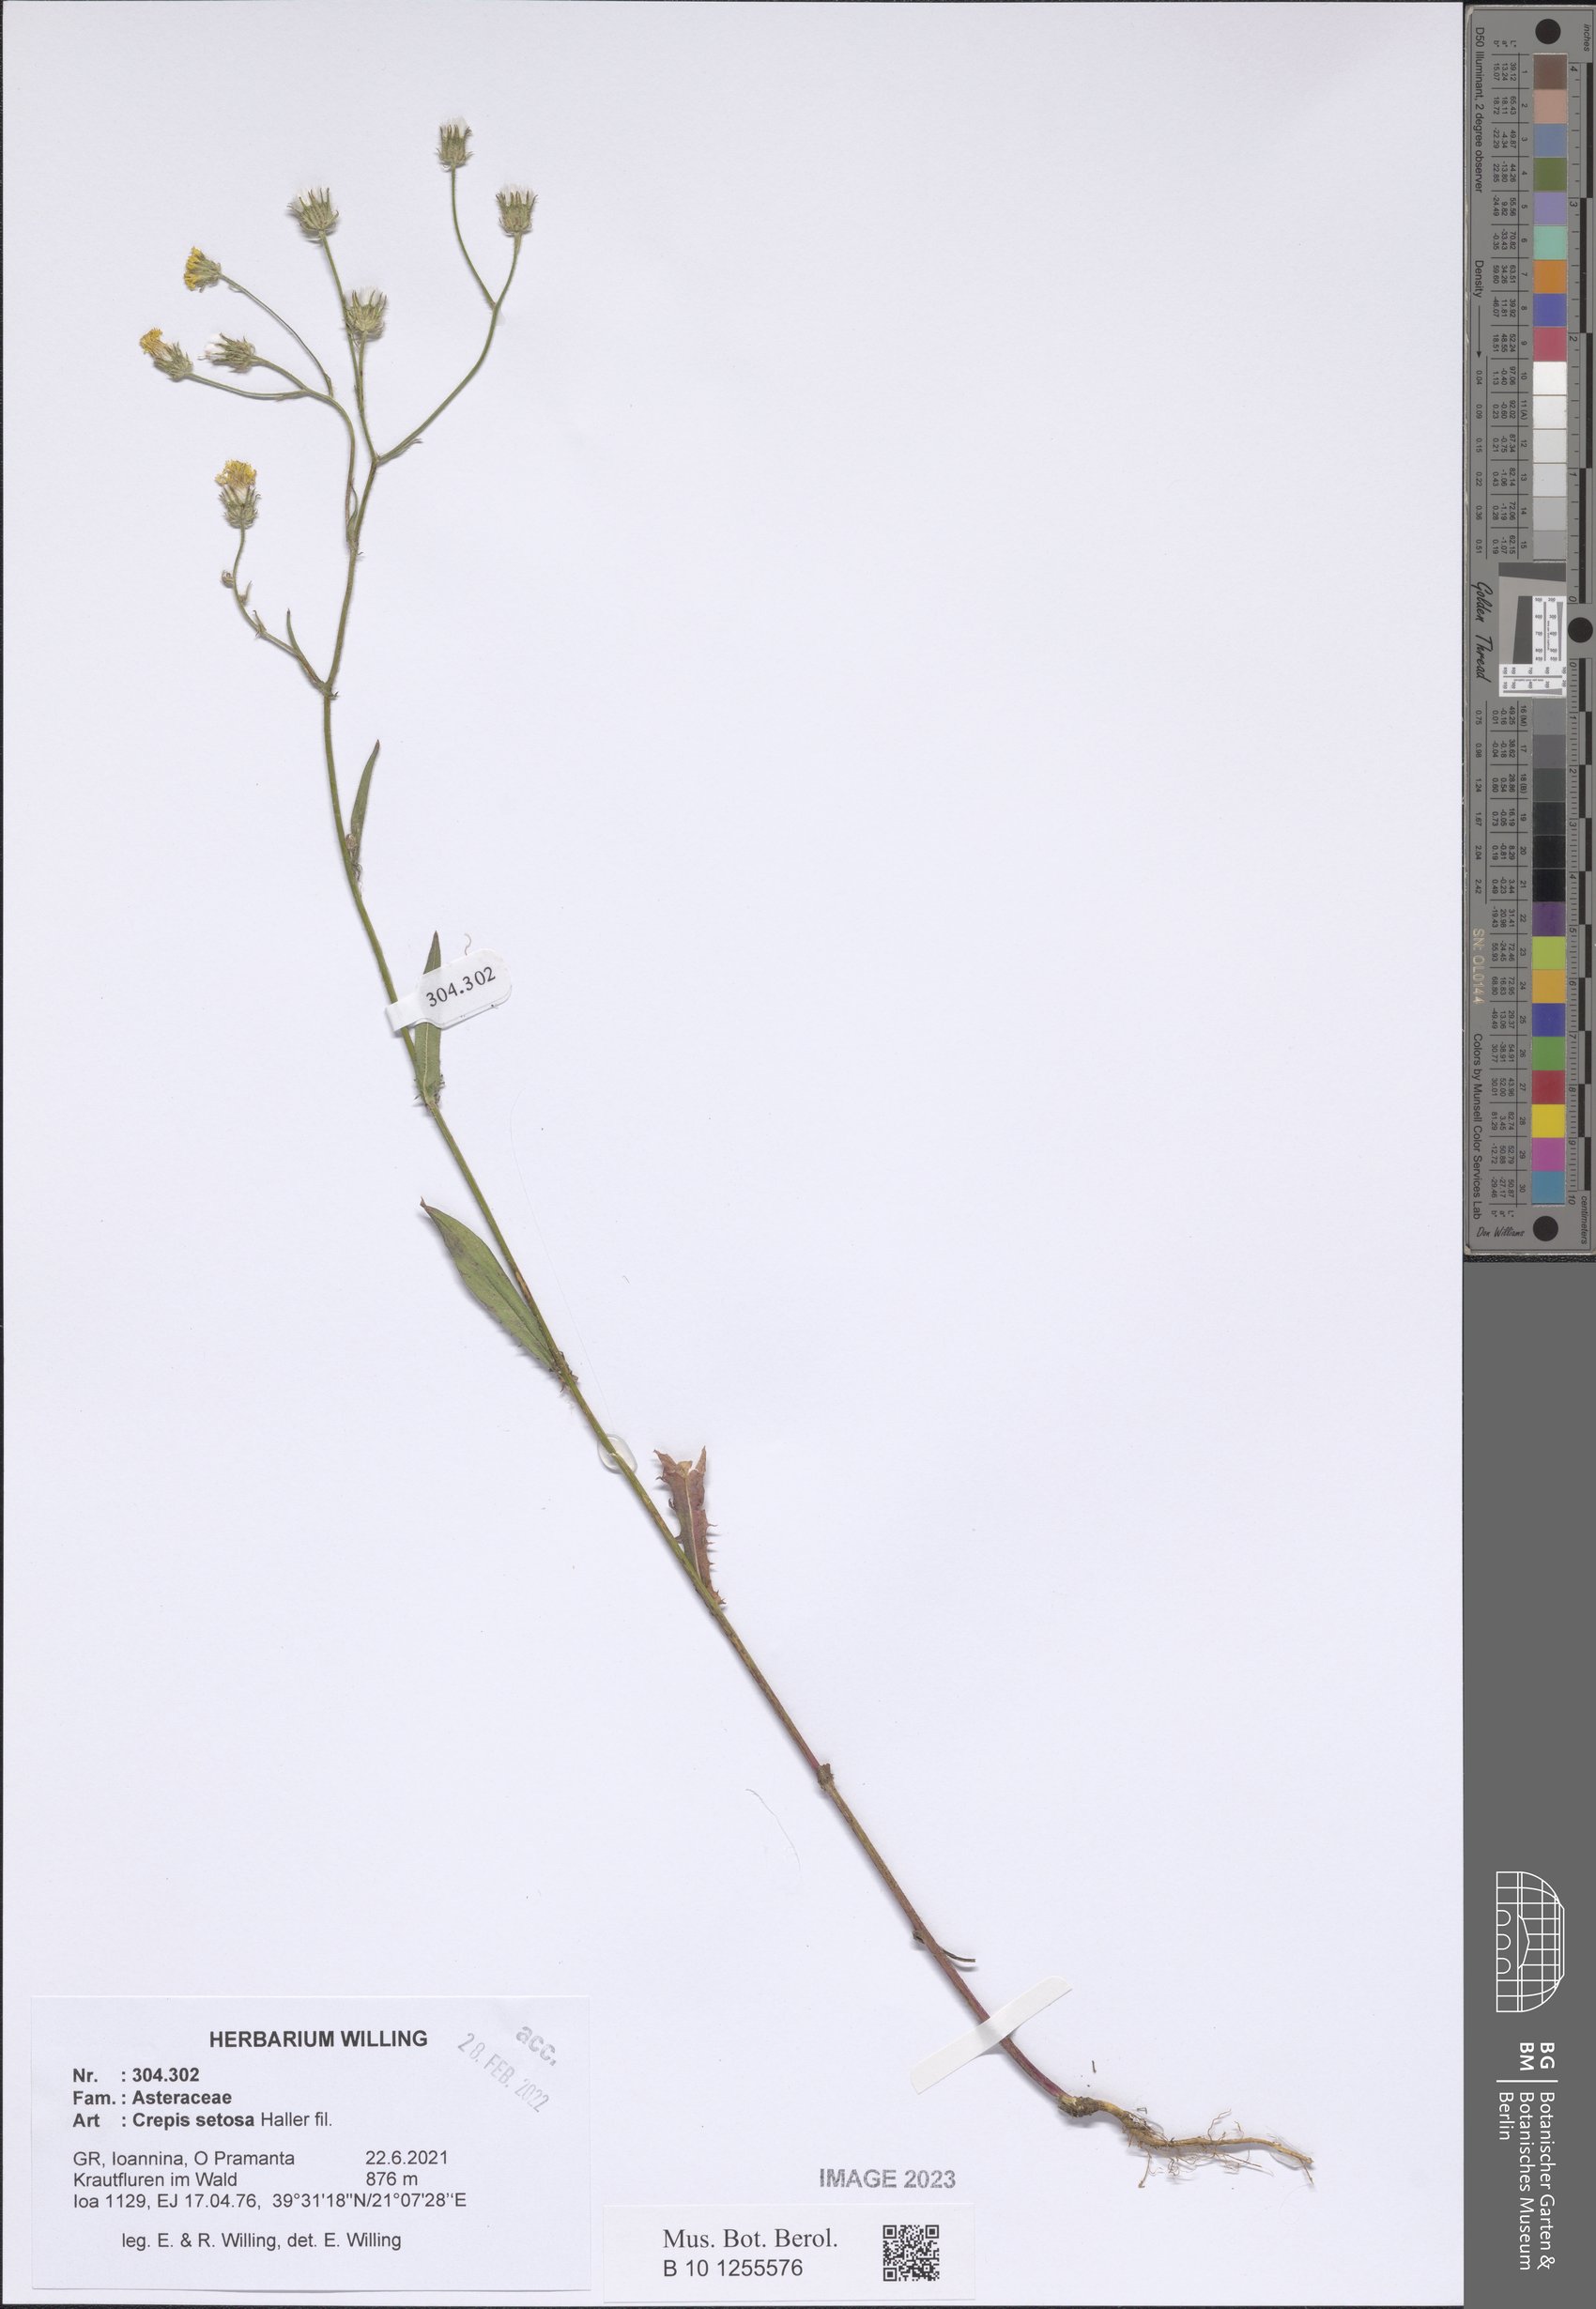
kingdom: Plantae
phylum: Tracheophyta
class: Magnoliopsida
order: Asterales
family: Asteraceae
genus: Crepis
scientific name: Crepis setosa
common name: Bristly hawk's-beard
